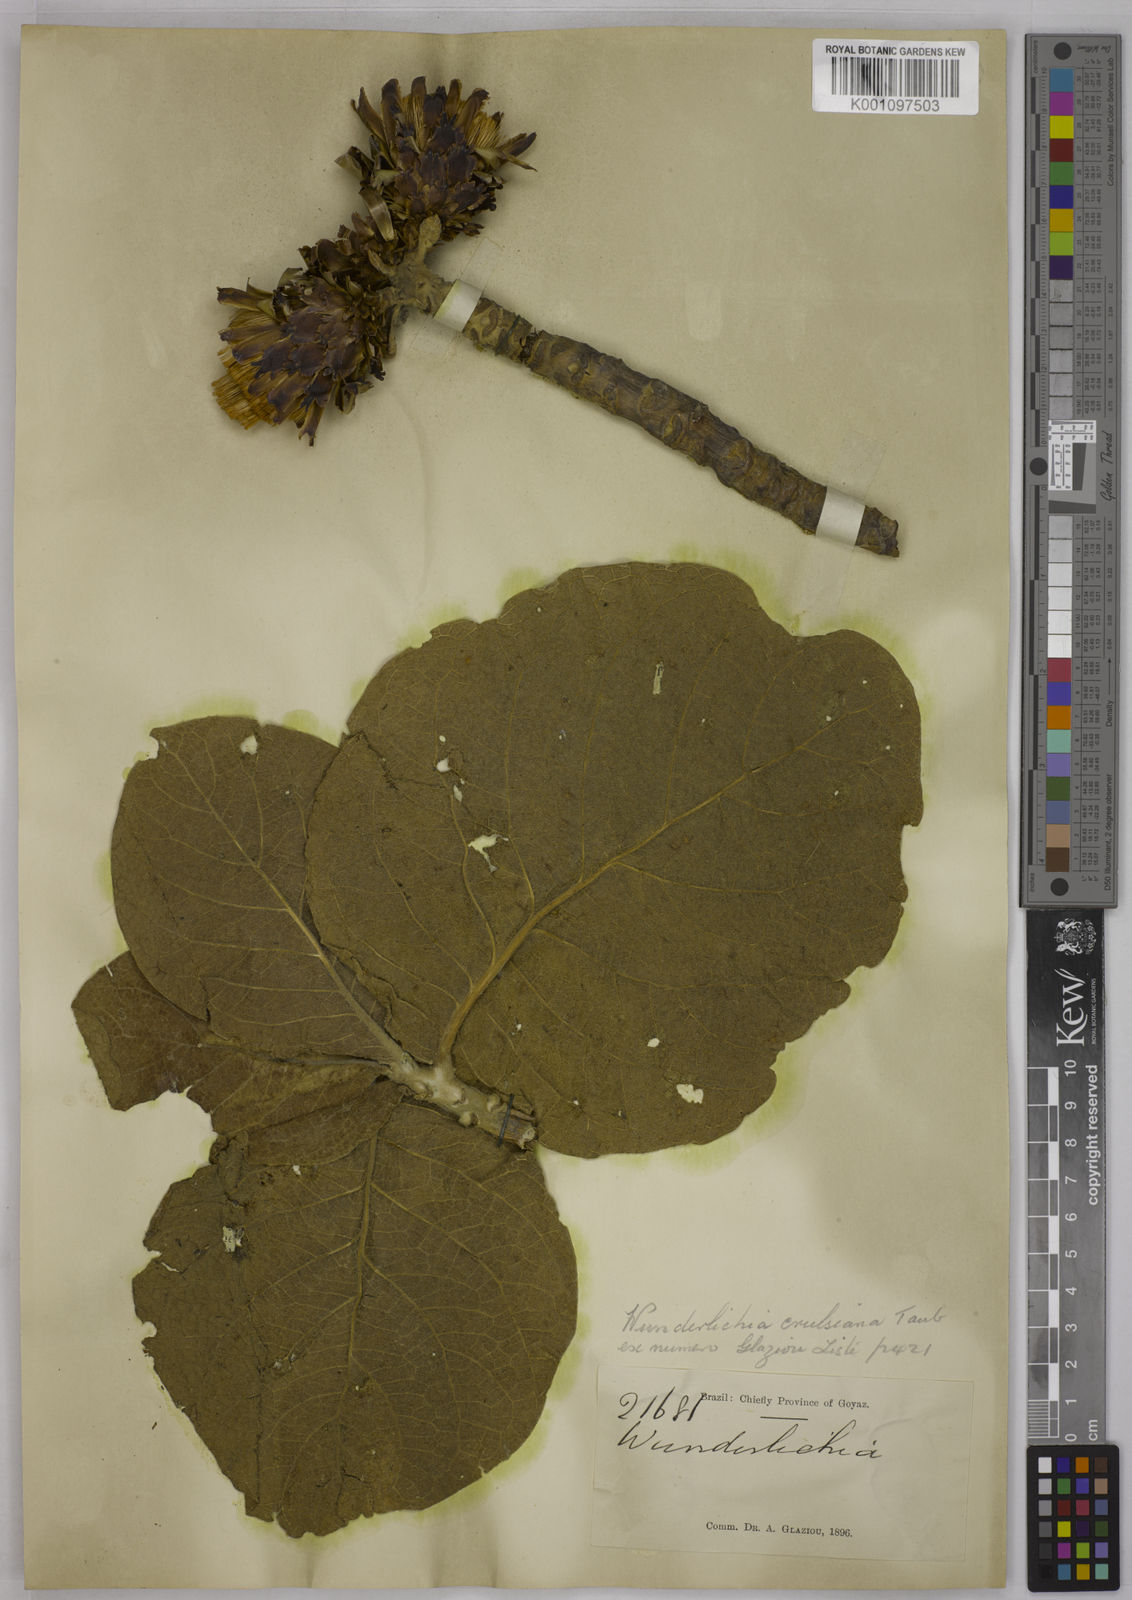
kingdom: Plantae
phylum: Tracheophyta
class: Magnoliopsida
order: Asterales
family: Asteraceae
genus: Wunderlichia
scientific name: Wunderlichia crulsiana
